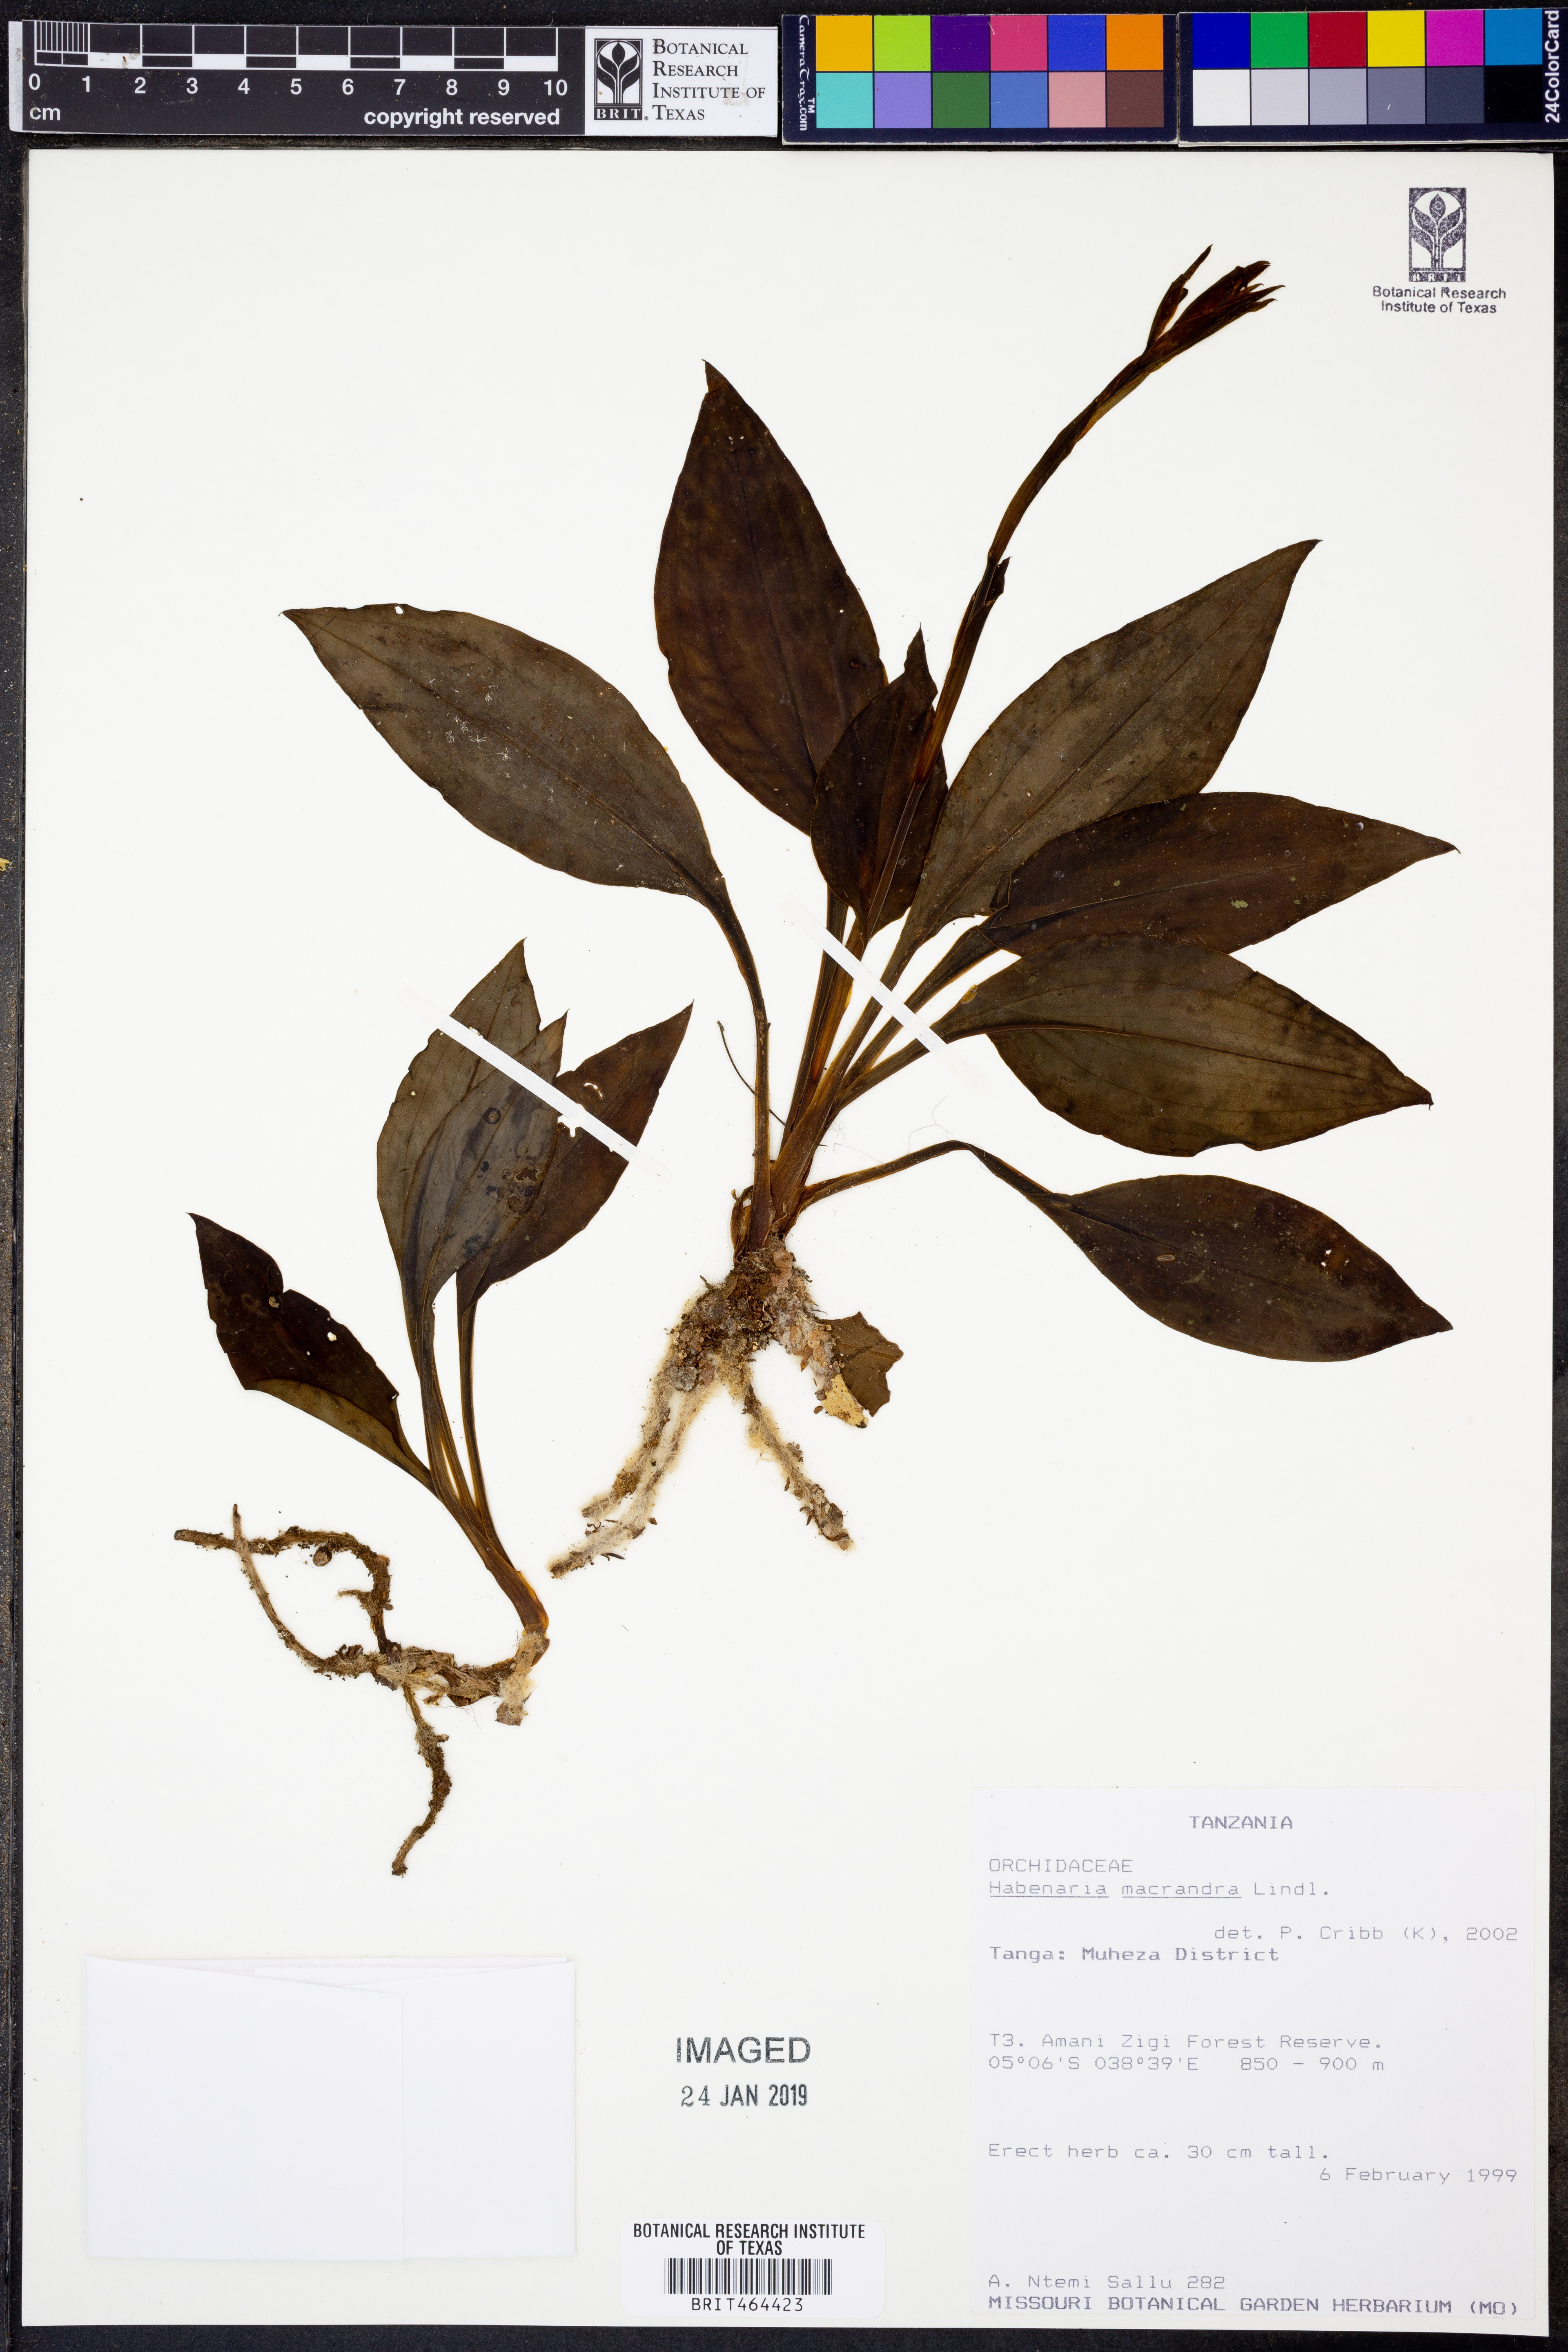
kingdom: Plantae
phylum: Tracheophyta
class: Liliopsida
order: Asparagales
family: Orchidaceae
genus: Habenaria
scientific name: Habenaria macrandra
